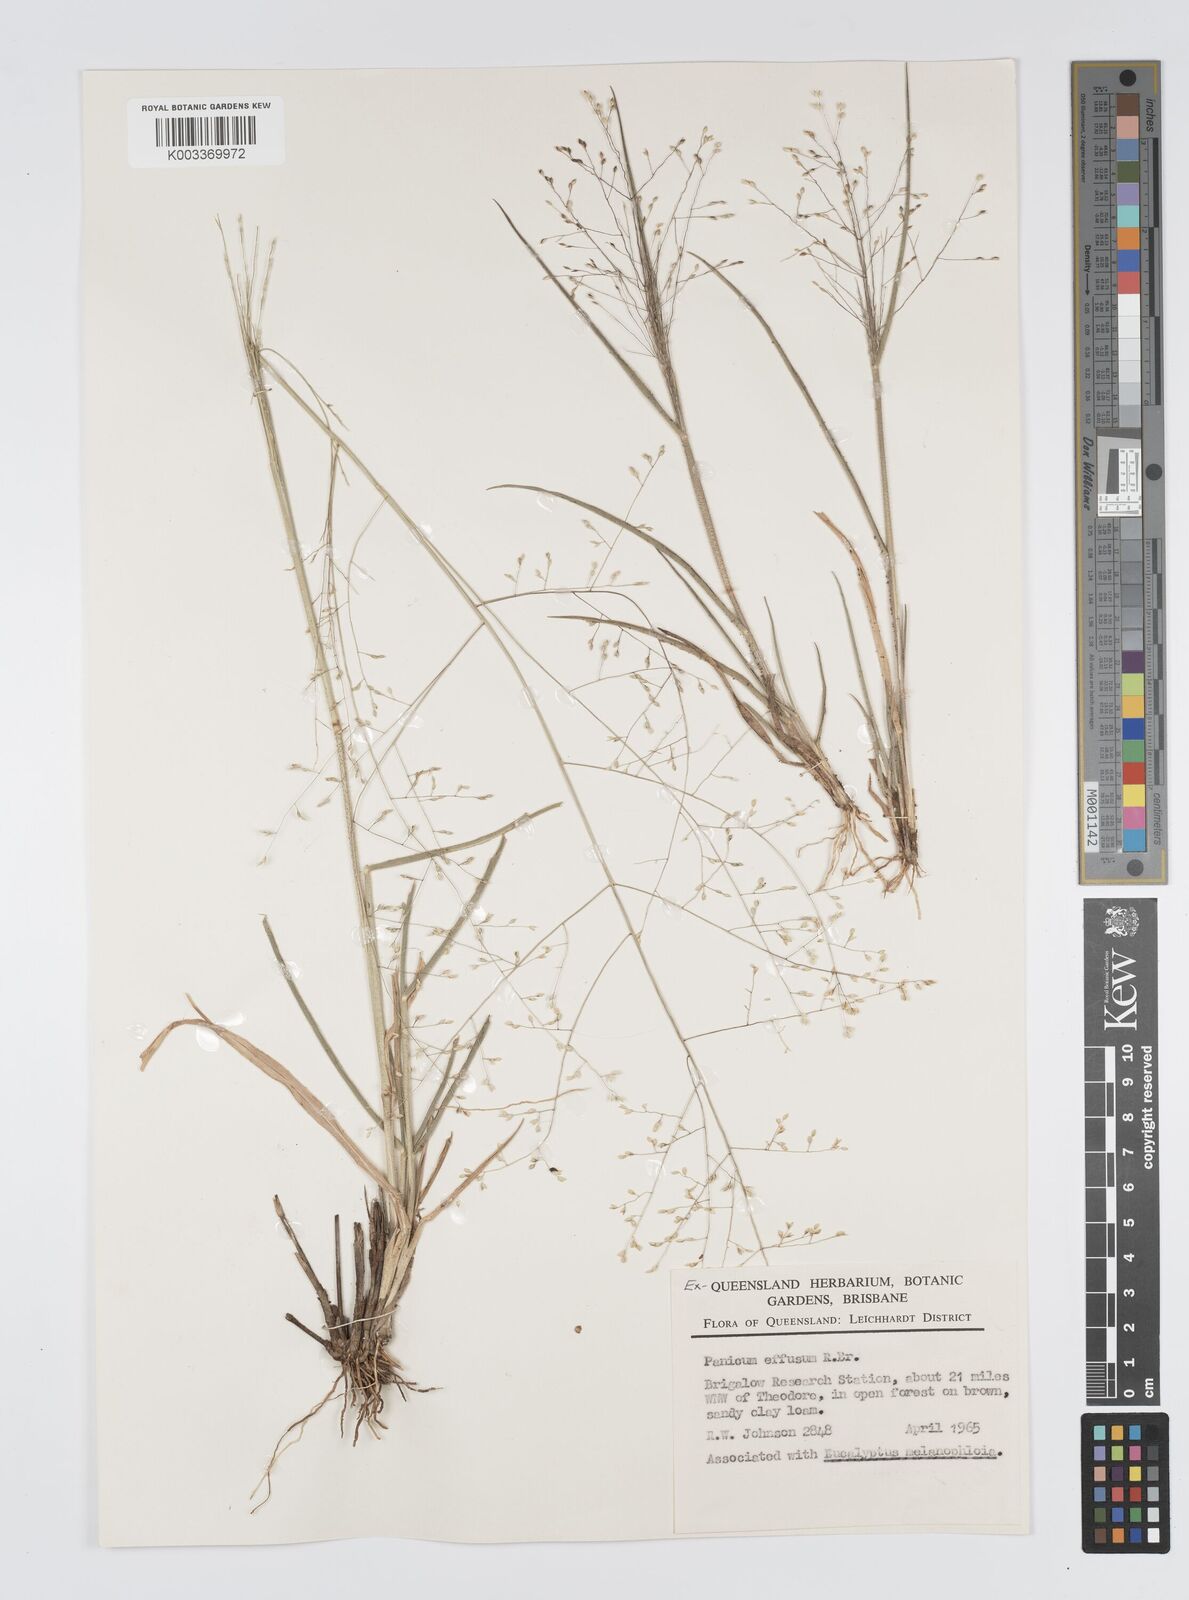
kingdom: Plantae
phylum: Tracheophyta
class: Liliopsida
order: Poales
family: Poaceae
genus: Panicum
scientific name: Panicum effusum
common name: Hairy panic grass
